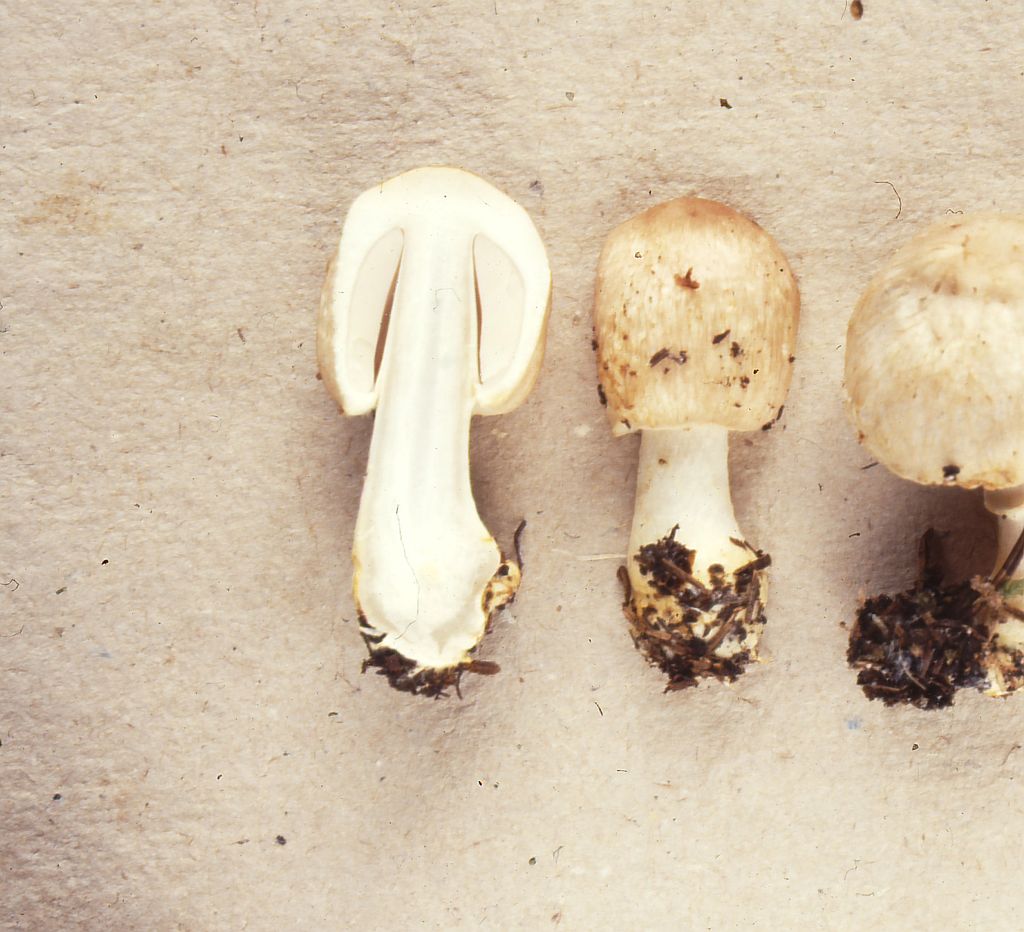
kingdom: Fungi
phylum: Basidiomycota
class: Agaricomycetes
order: Agaricales
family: Agaricaceae
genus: Agaricus
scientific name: Agaricus dulcidulus
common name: blegrød champignon
